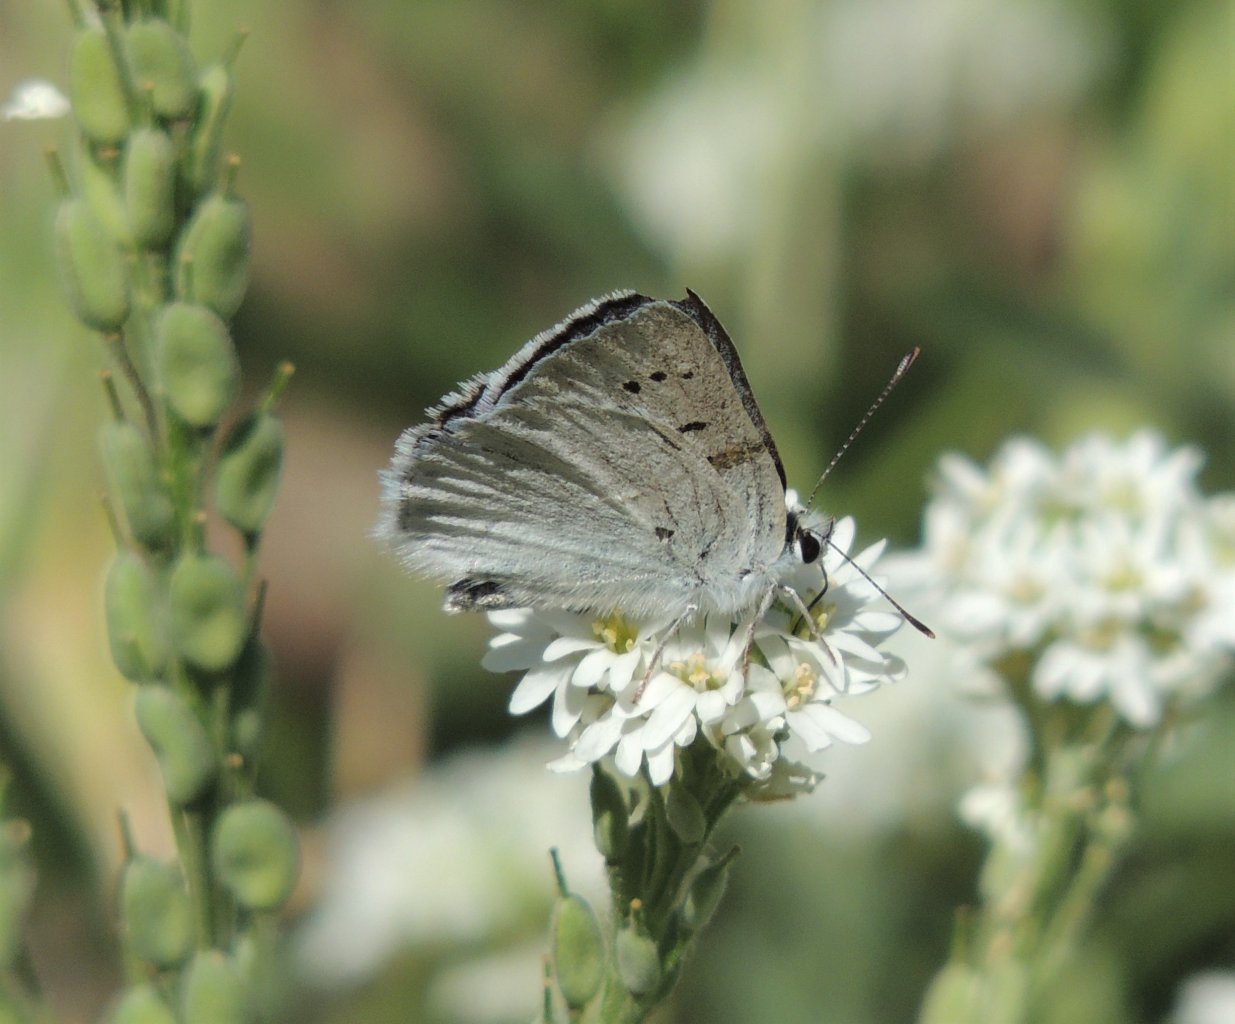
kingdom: Animalia
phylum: Arthropoda
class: Insecta
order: Lepidoptera
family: Lycaenidae
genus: Lycaena
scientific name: Lycaena heteronea
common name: Blue Copper
